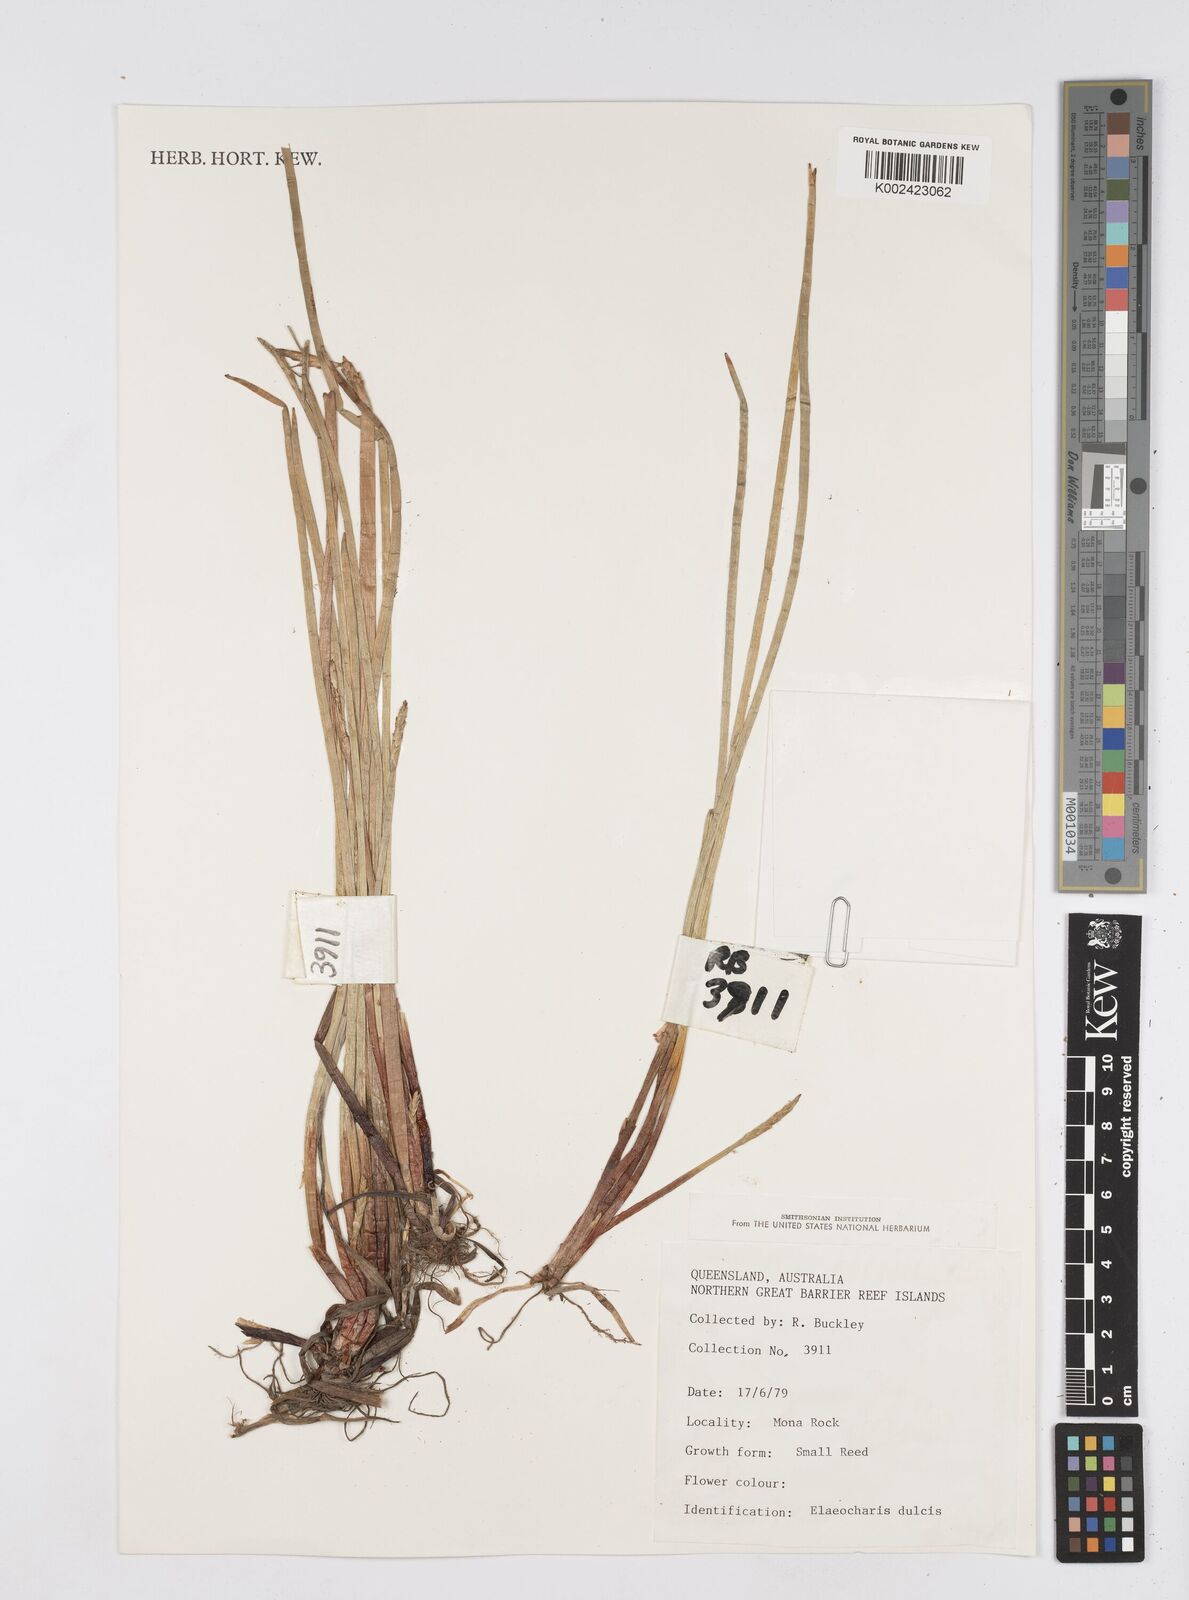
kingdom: Plantae
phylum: Tracheophyta
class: Liliopsida
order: Poales
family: Cyperaceae
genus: Eleocharis
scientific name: Eleocharis dulcis
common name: Chinese water chestnut
